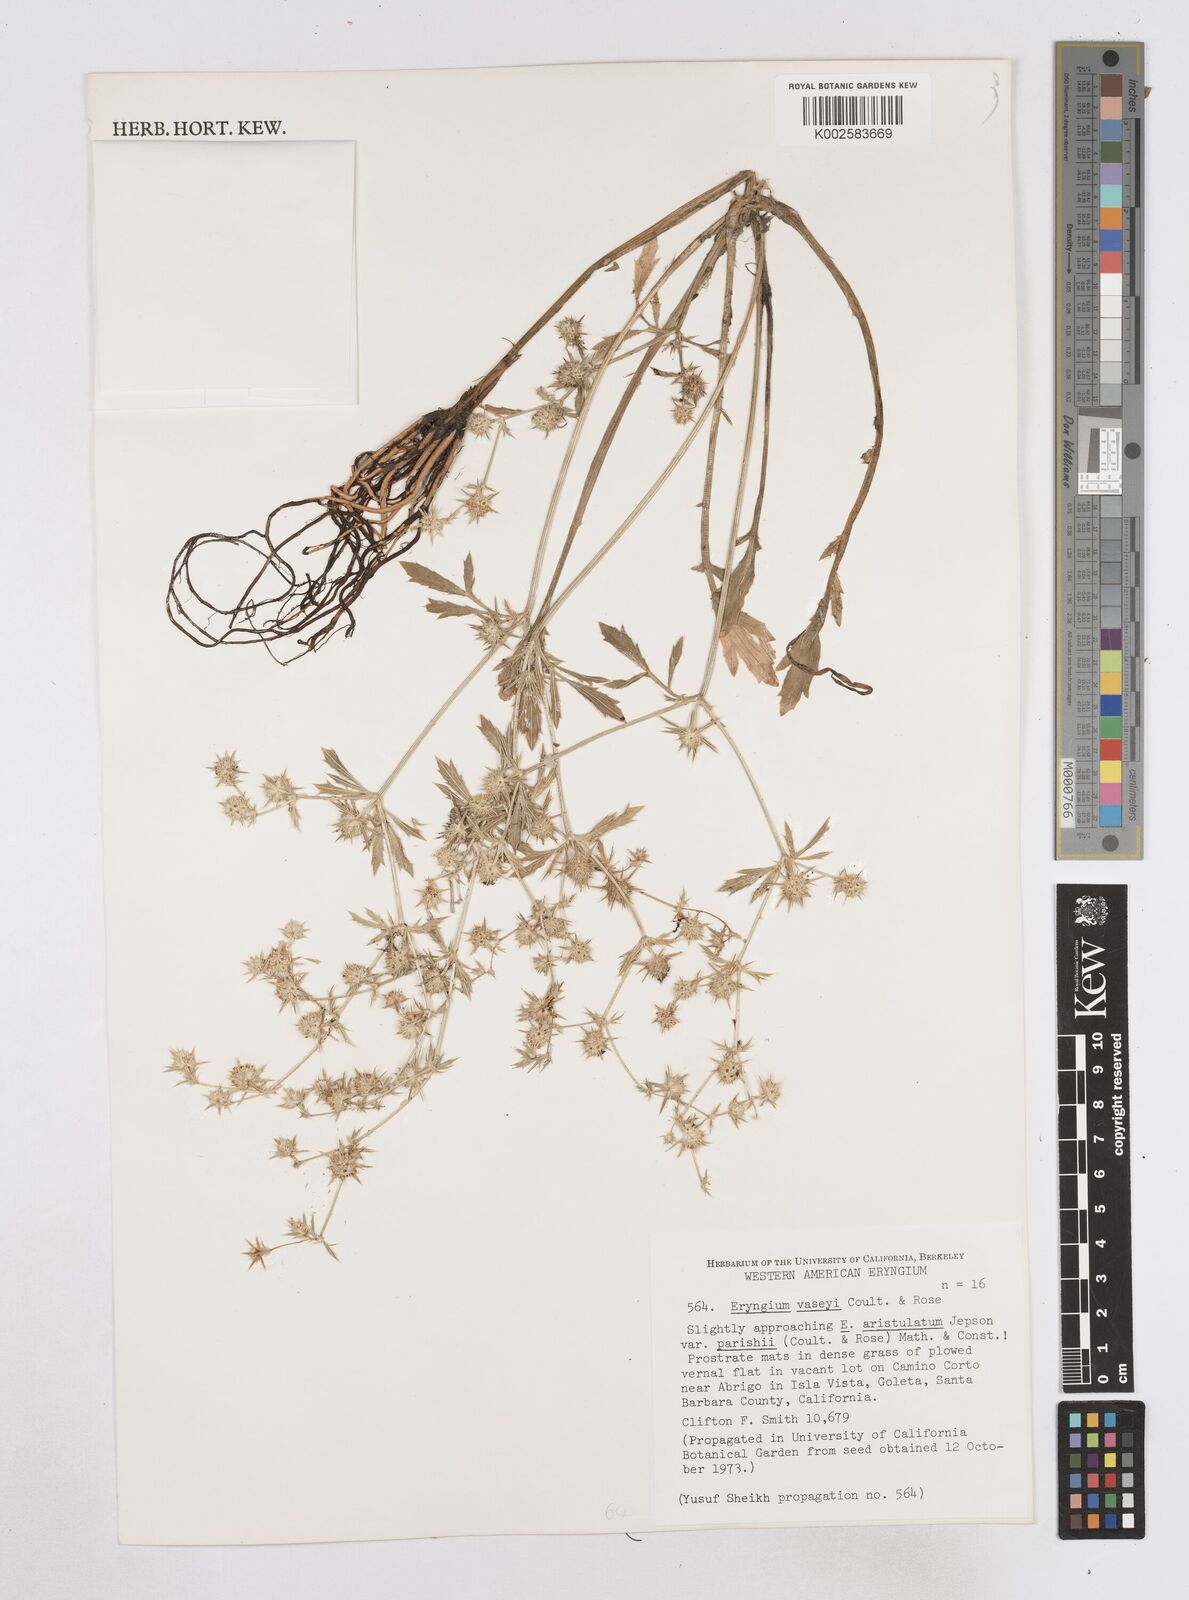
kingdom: Plantae
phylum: Tracheophyta
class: Magnoliopsida
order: Apiales
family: Apiaceae
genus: Eryngium
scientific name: Eryngium vaseyi
